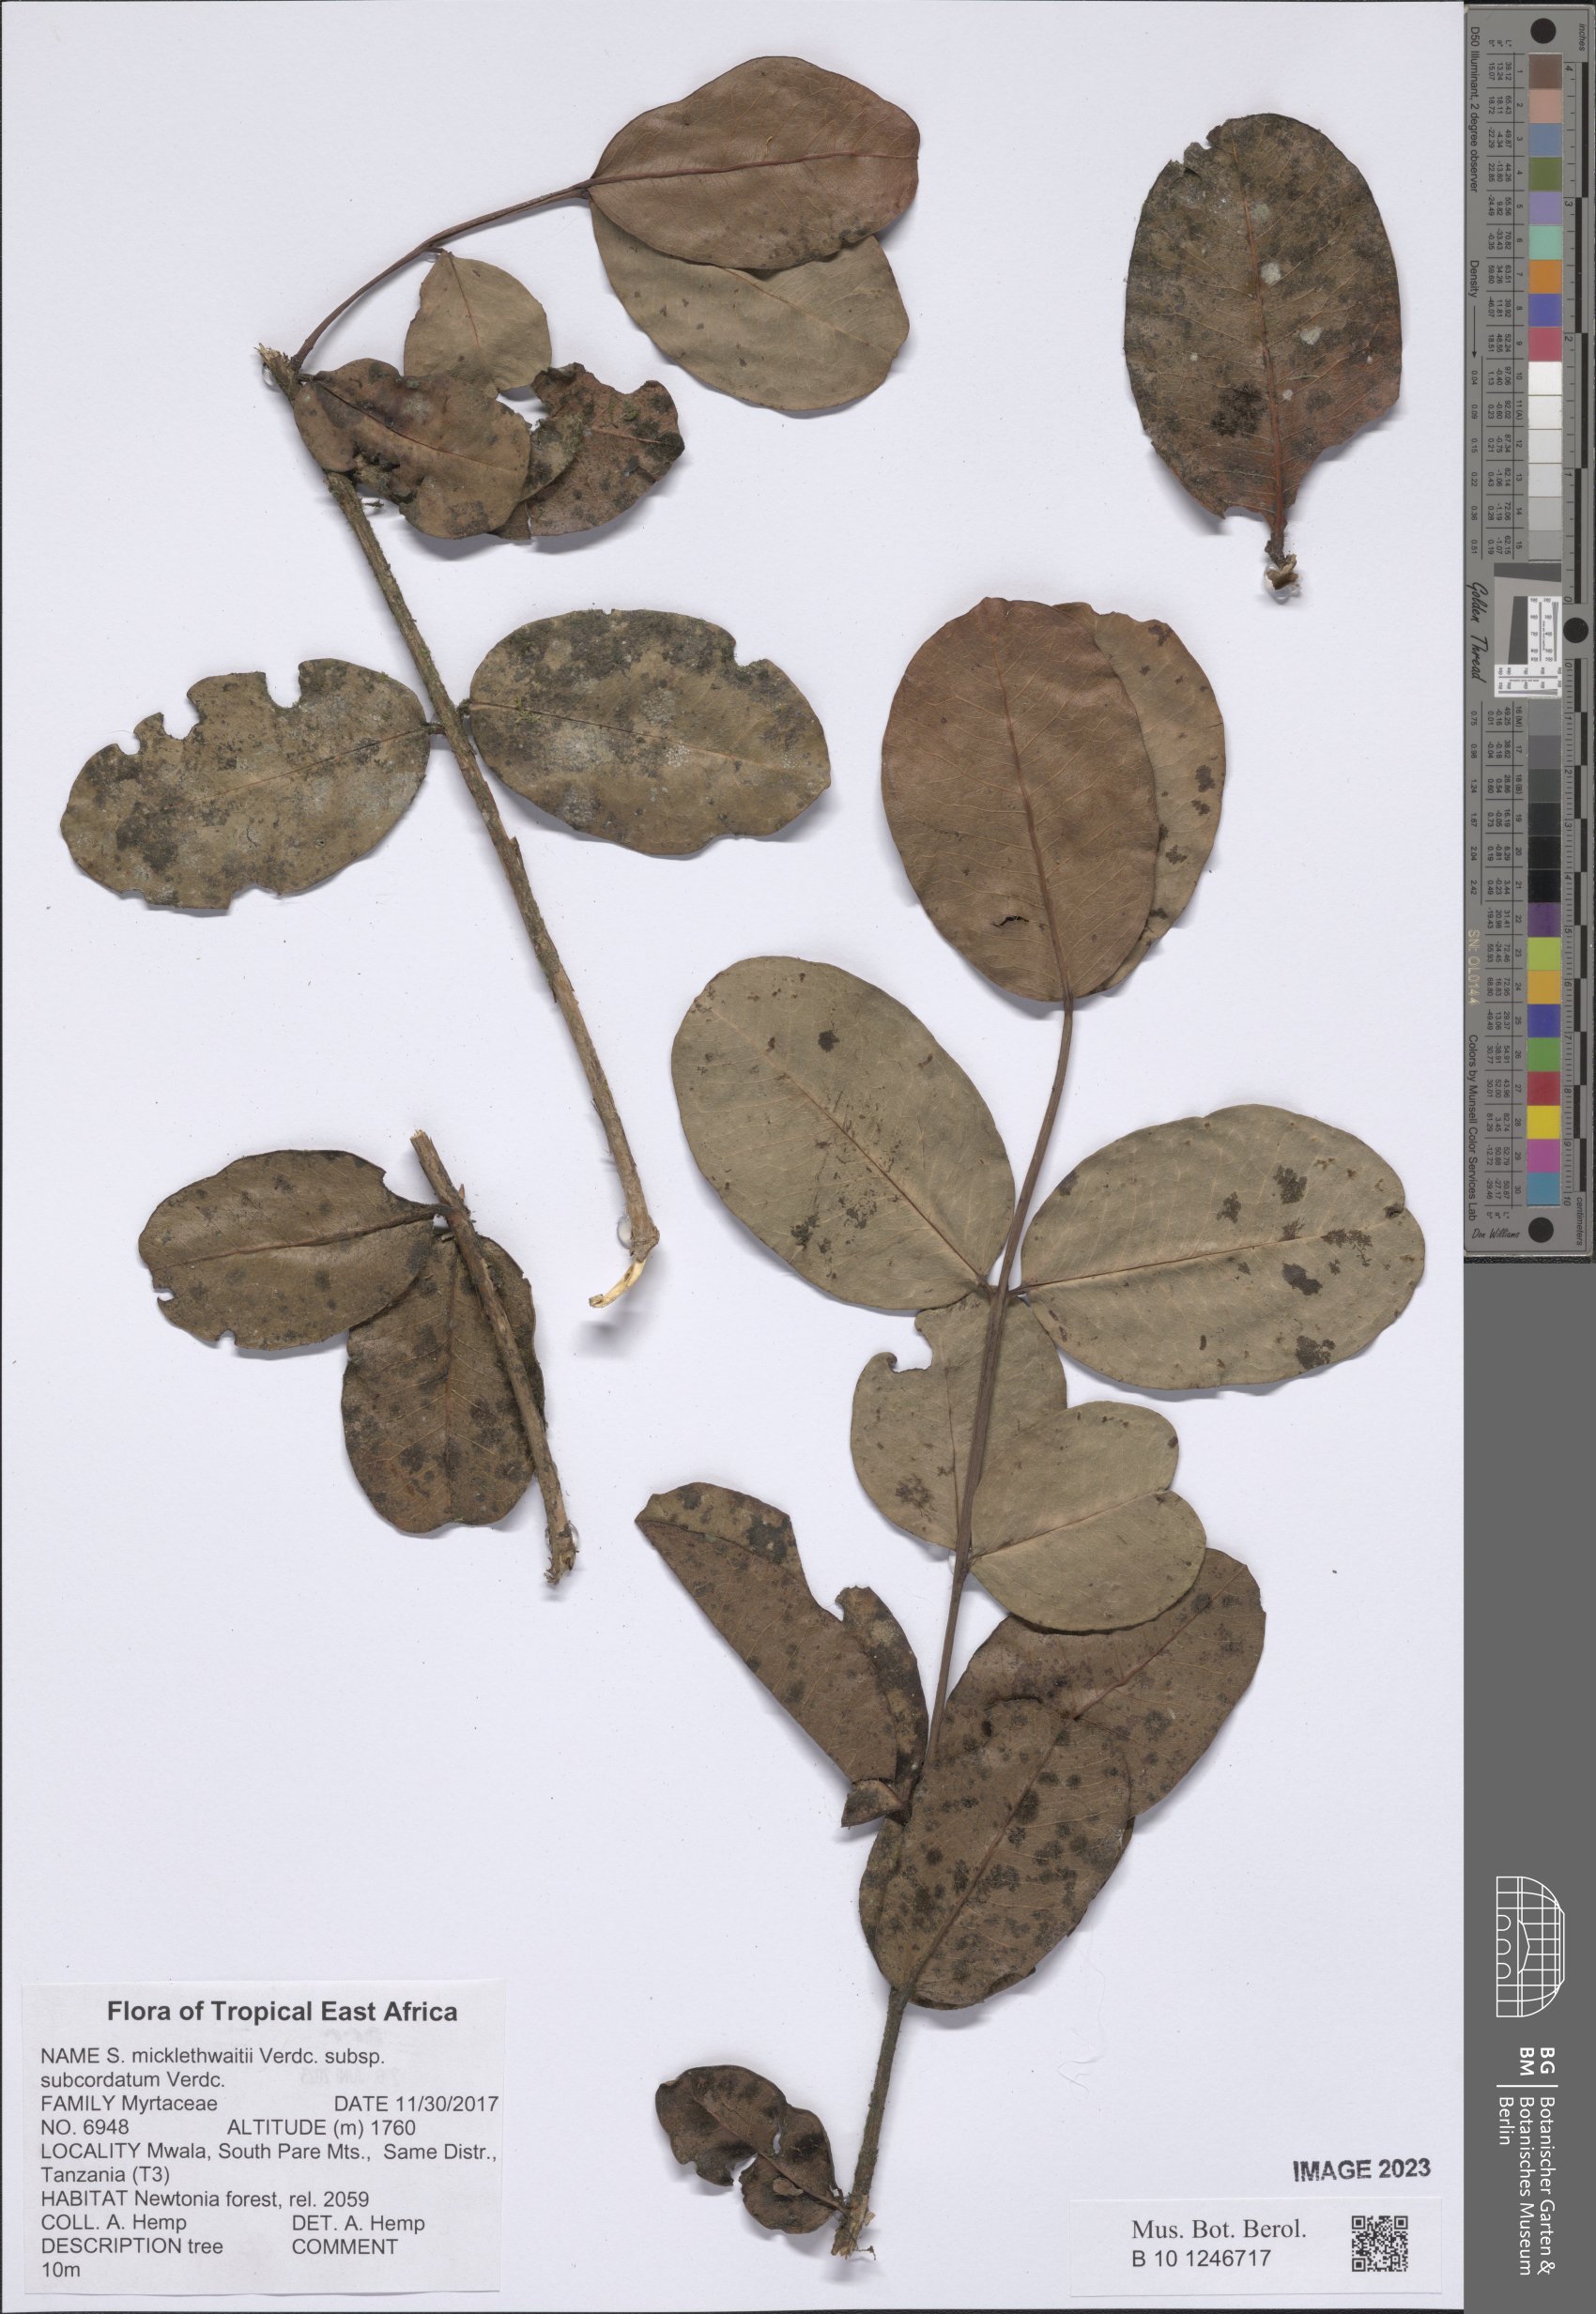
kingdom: Plantae
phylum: Tracheophyta
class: Magnoliopsida
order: Myrtales
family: Myrtaceae
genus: Syzygium
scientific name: Syzygium subcordatum
